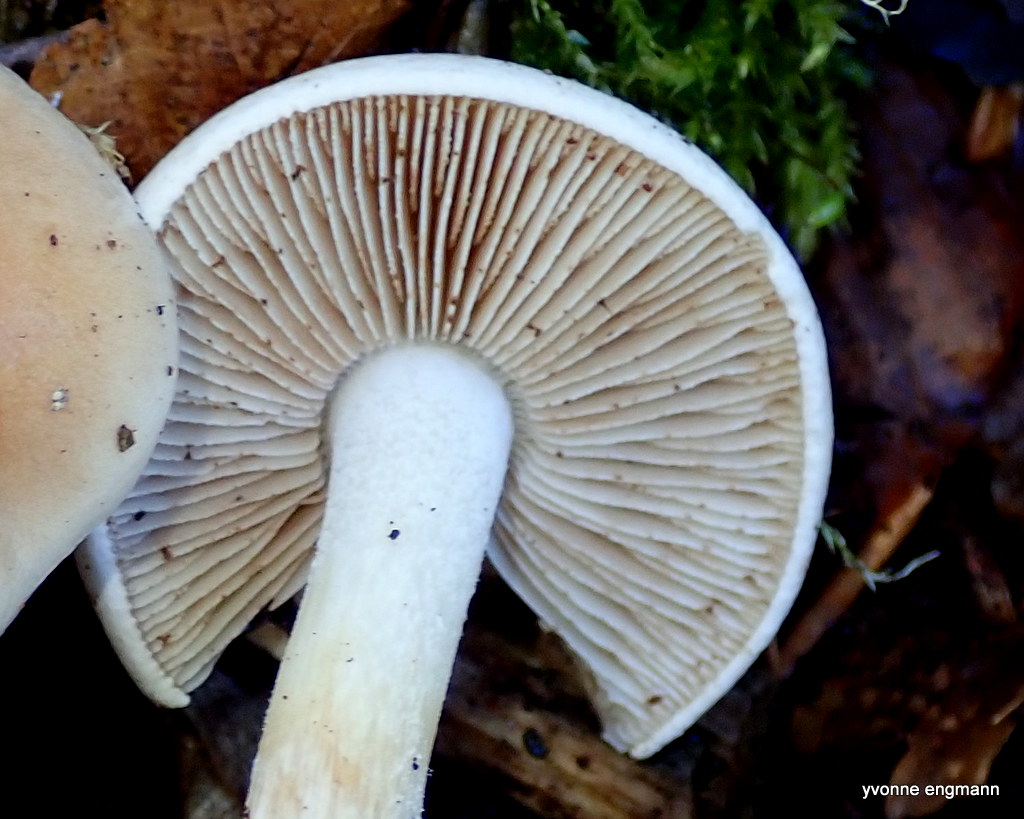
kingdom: Fungi
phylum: Basidiomycota
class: Agaricomycetes
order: Agaricales
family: Hymenogastraceae
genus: Hebeloma
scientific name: Hebeloma
